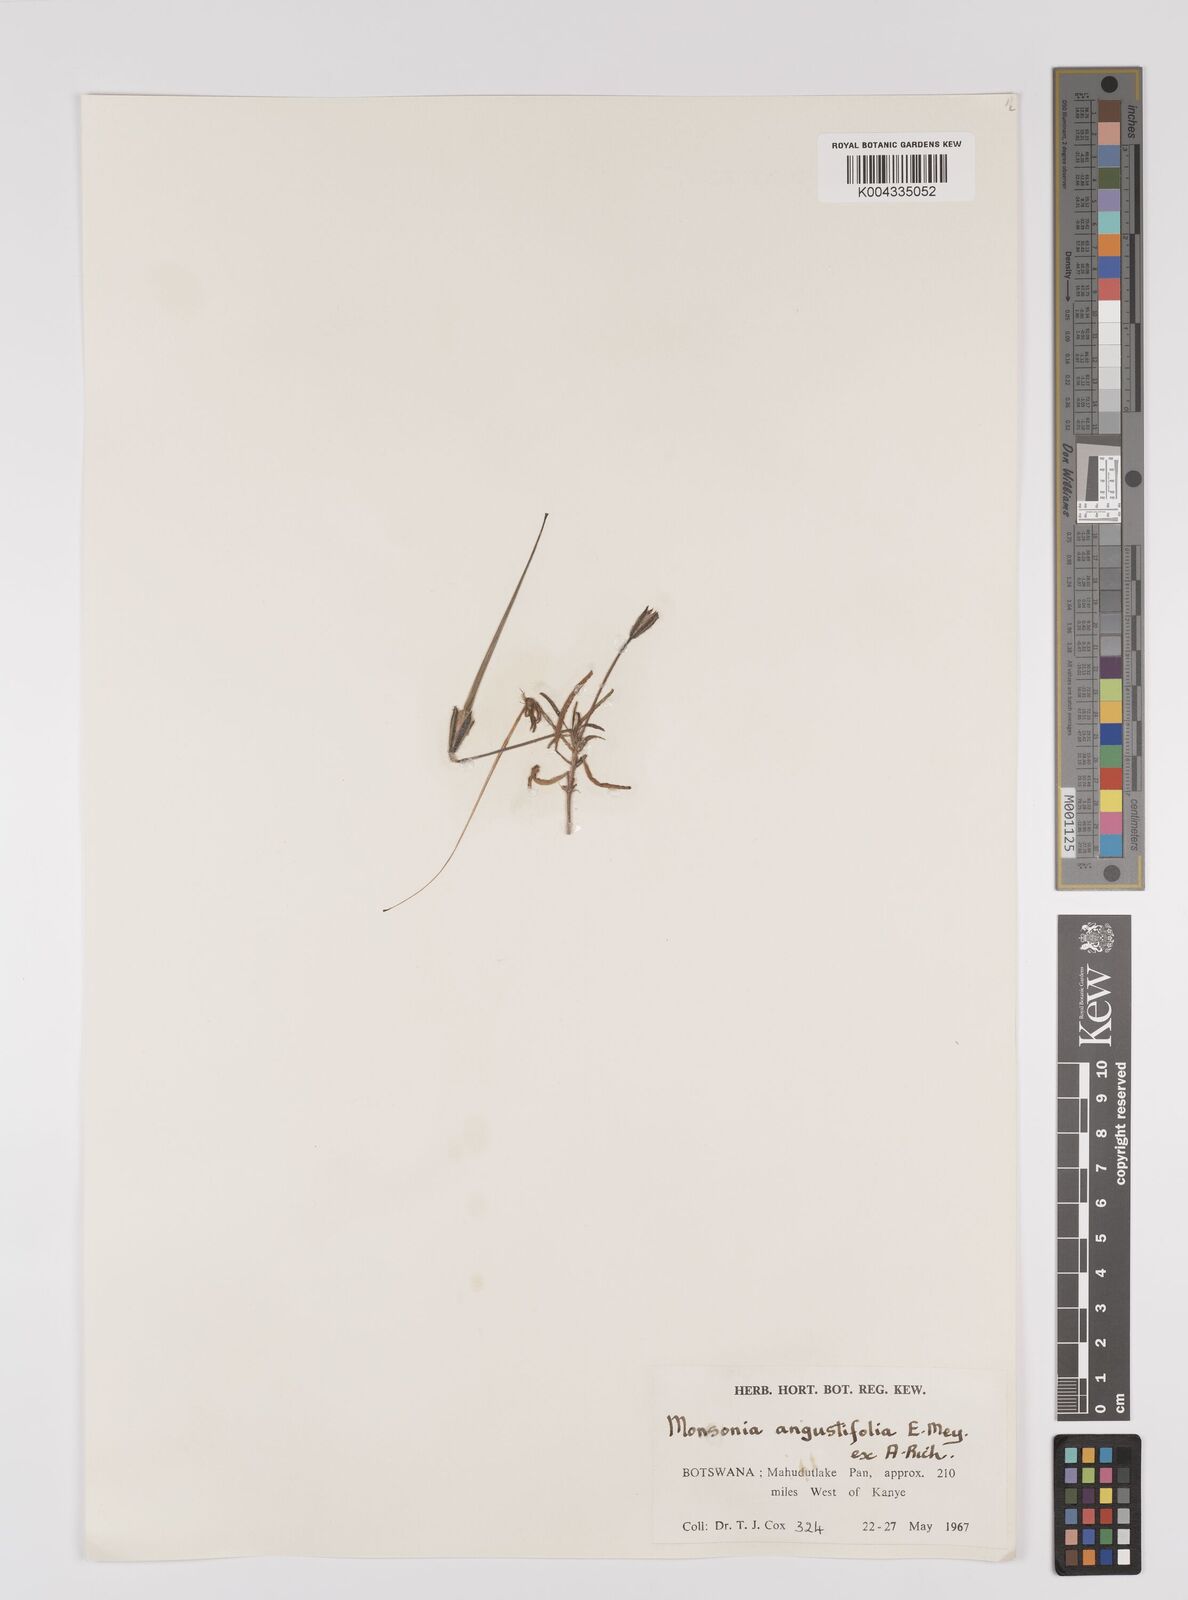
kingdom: Plantae
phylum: Tracheophyta
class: Magnoliopsida
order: Geraniales
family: Geraniaceae
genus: Monsonia
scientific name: Monsonia angustifolia
